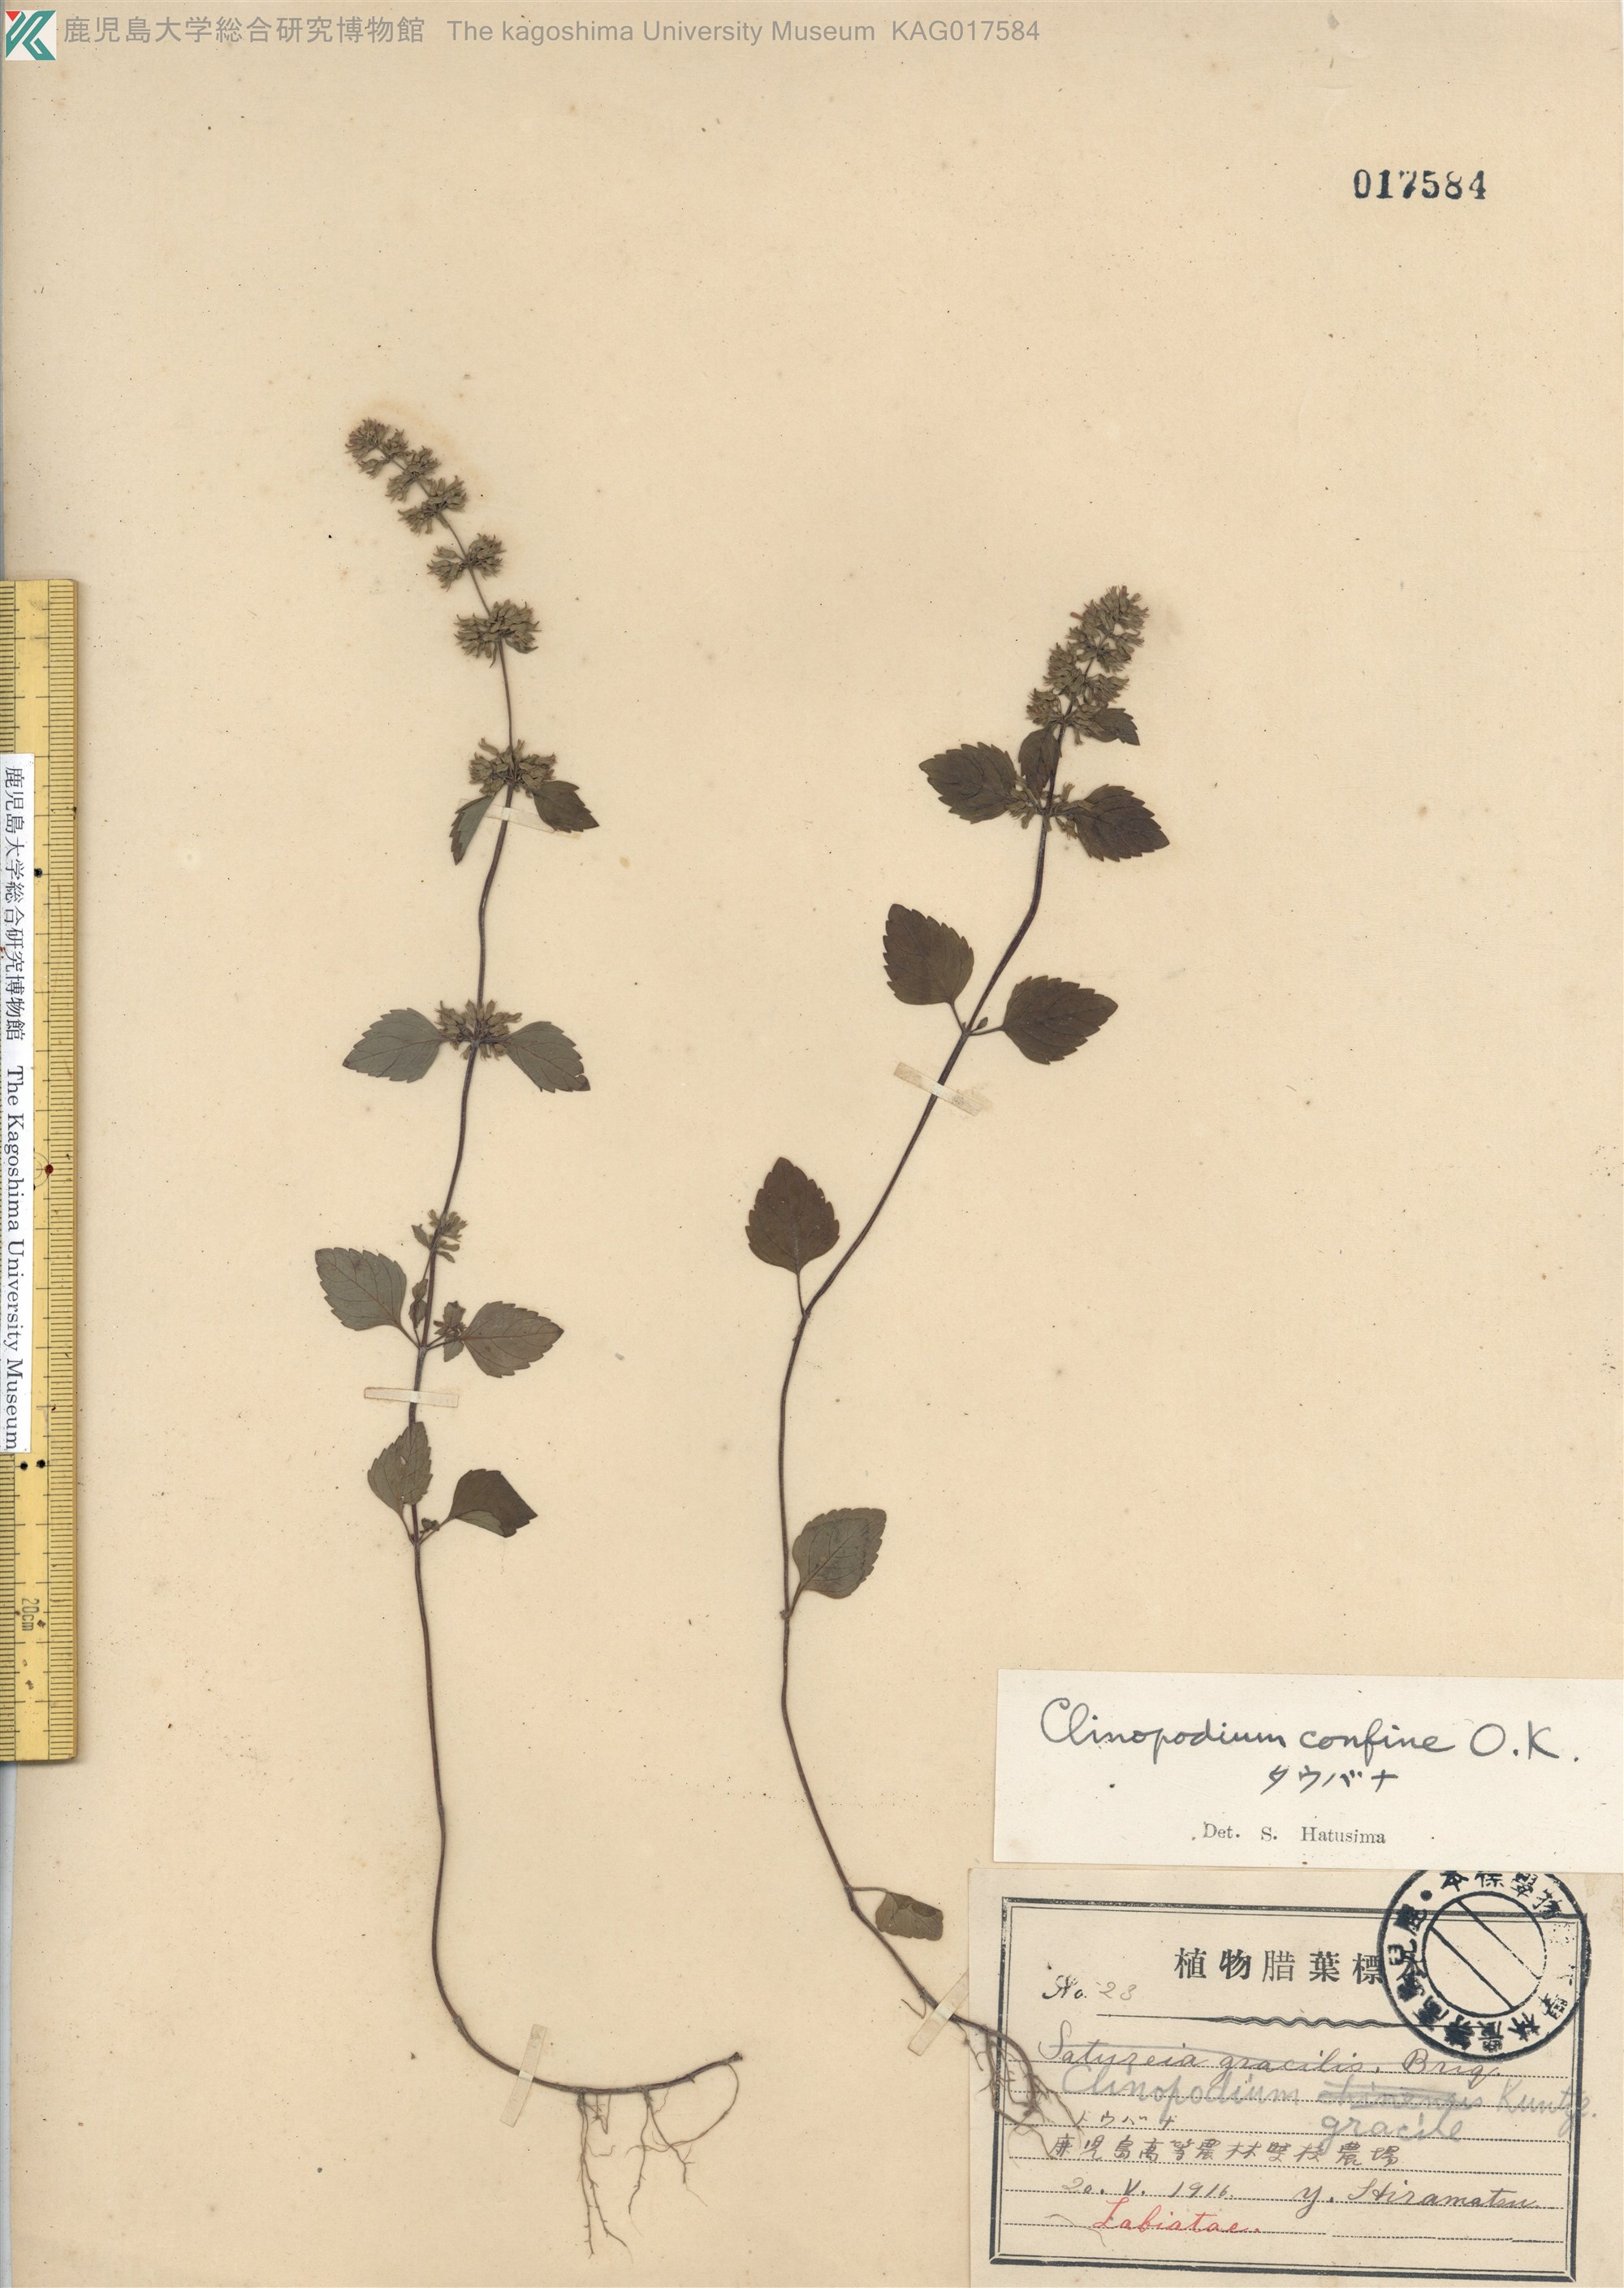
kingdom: Plantae
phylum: Tracheophyta
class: Magnoliopsida
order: Lamiales
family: Lamiaceae
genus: Clinopodium
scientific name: Clinopodium gracile
